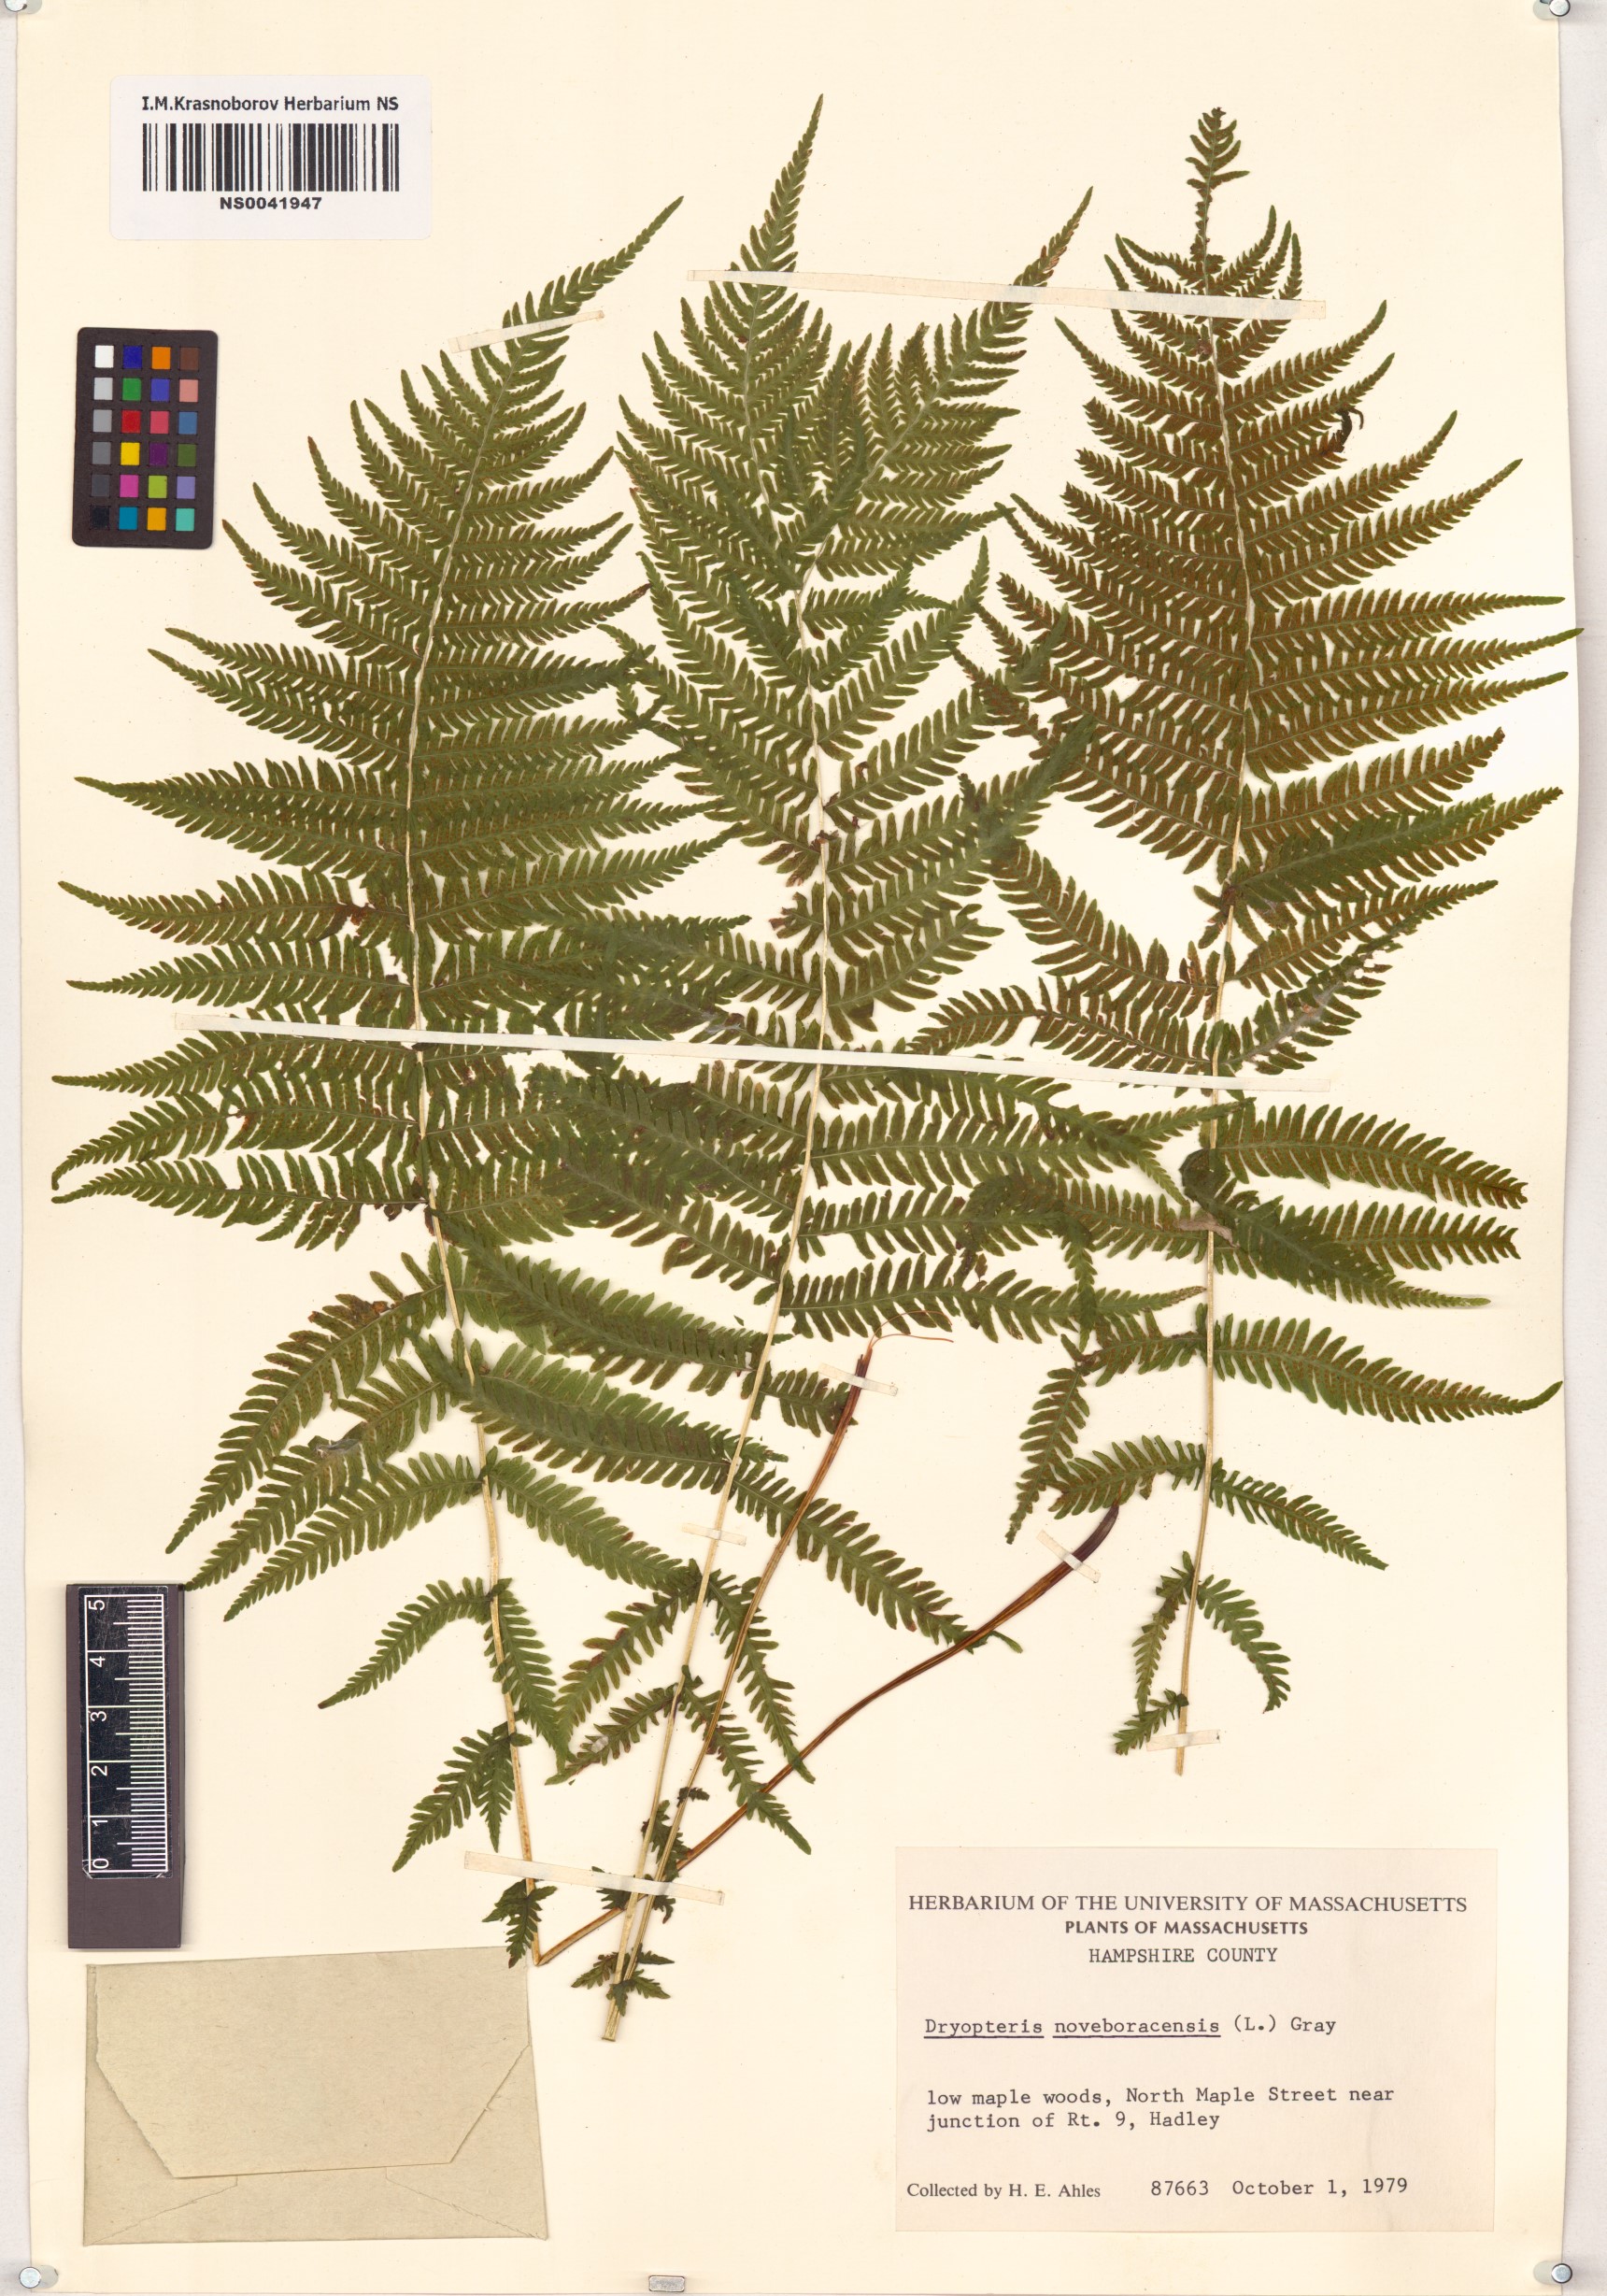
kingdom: Plantae
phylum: Tracheophyta
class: Polypodiopsida
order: Polypodiales
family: Thelypteridaceae
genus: Amauropelta
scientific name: Amauropelta noveboracensis
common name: New york fern
